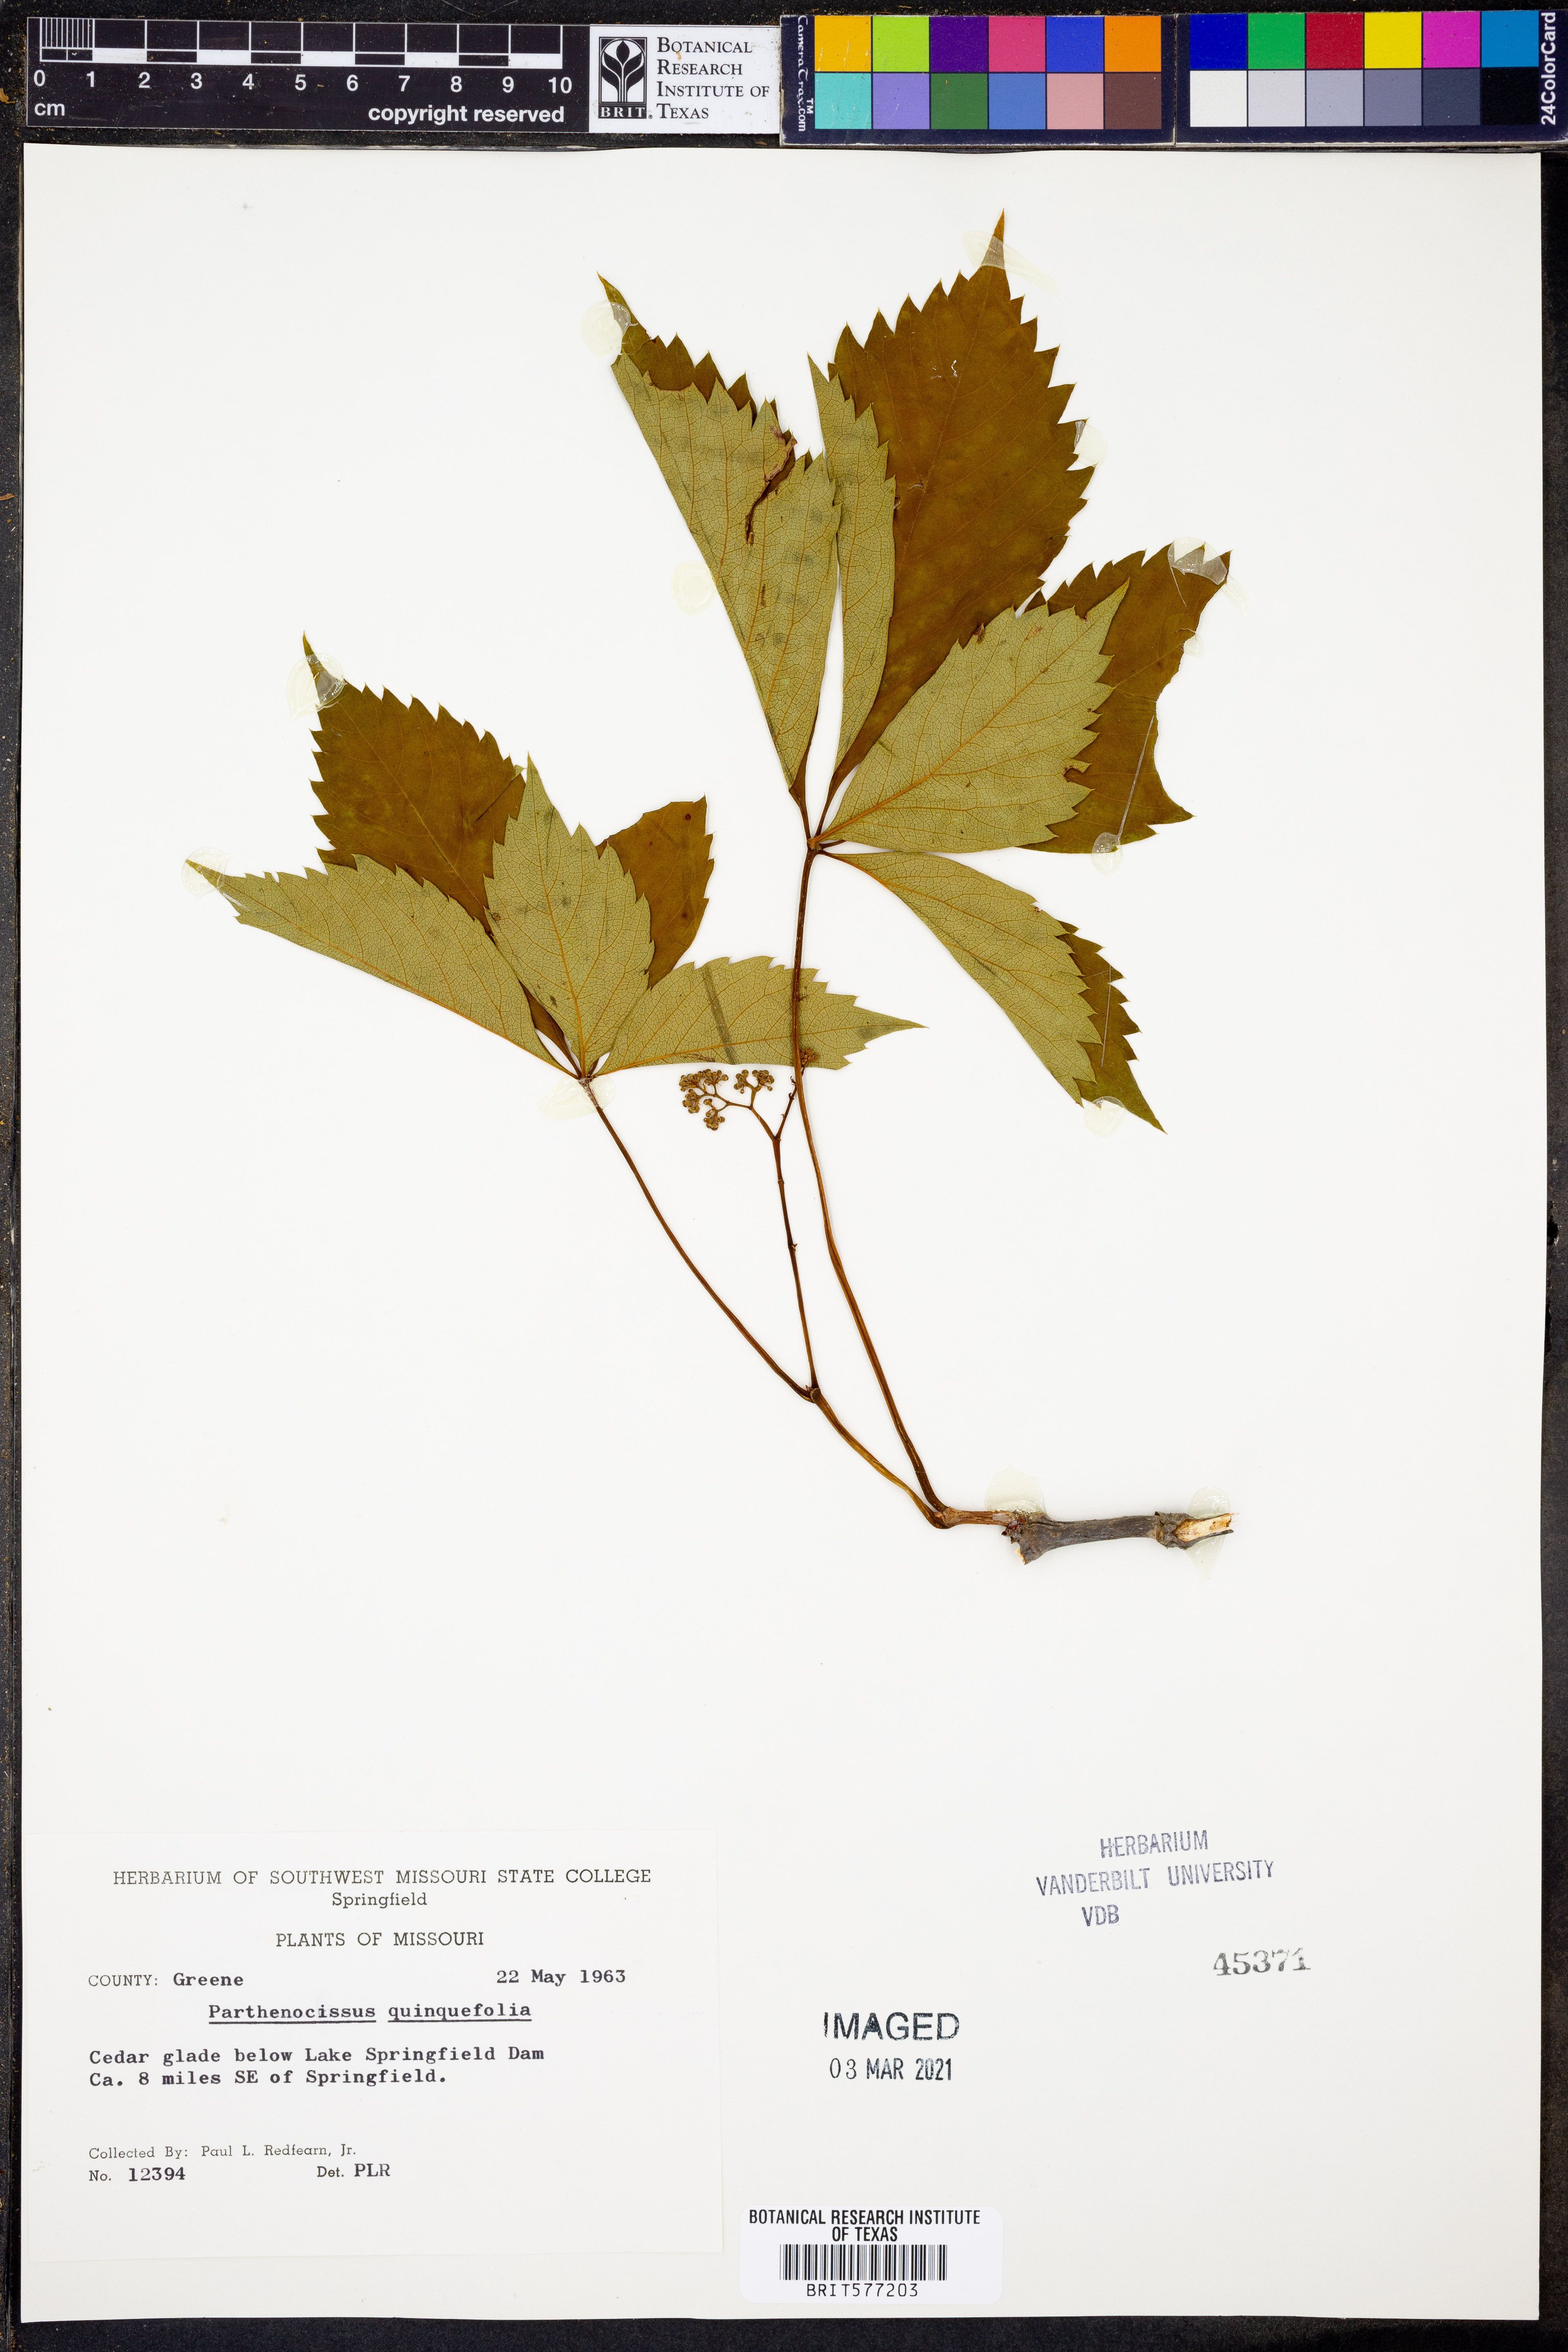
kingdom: Plantae
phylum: Tracheophyta
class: Magnoliopsida
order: Vitales
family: Vitaceae
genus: Parthenocissus
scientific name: Parthenocissus quinquefolia
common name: Virginia-creeper
